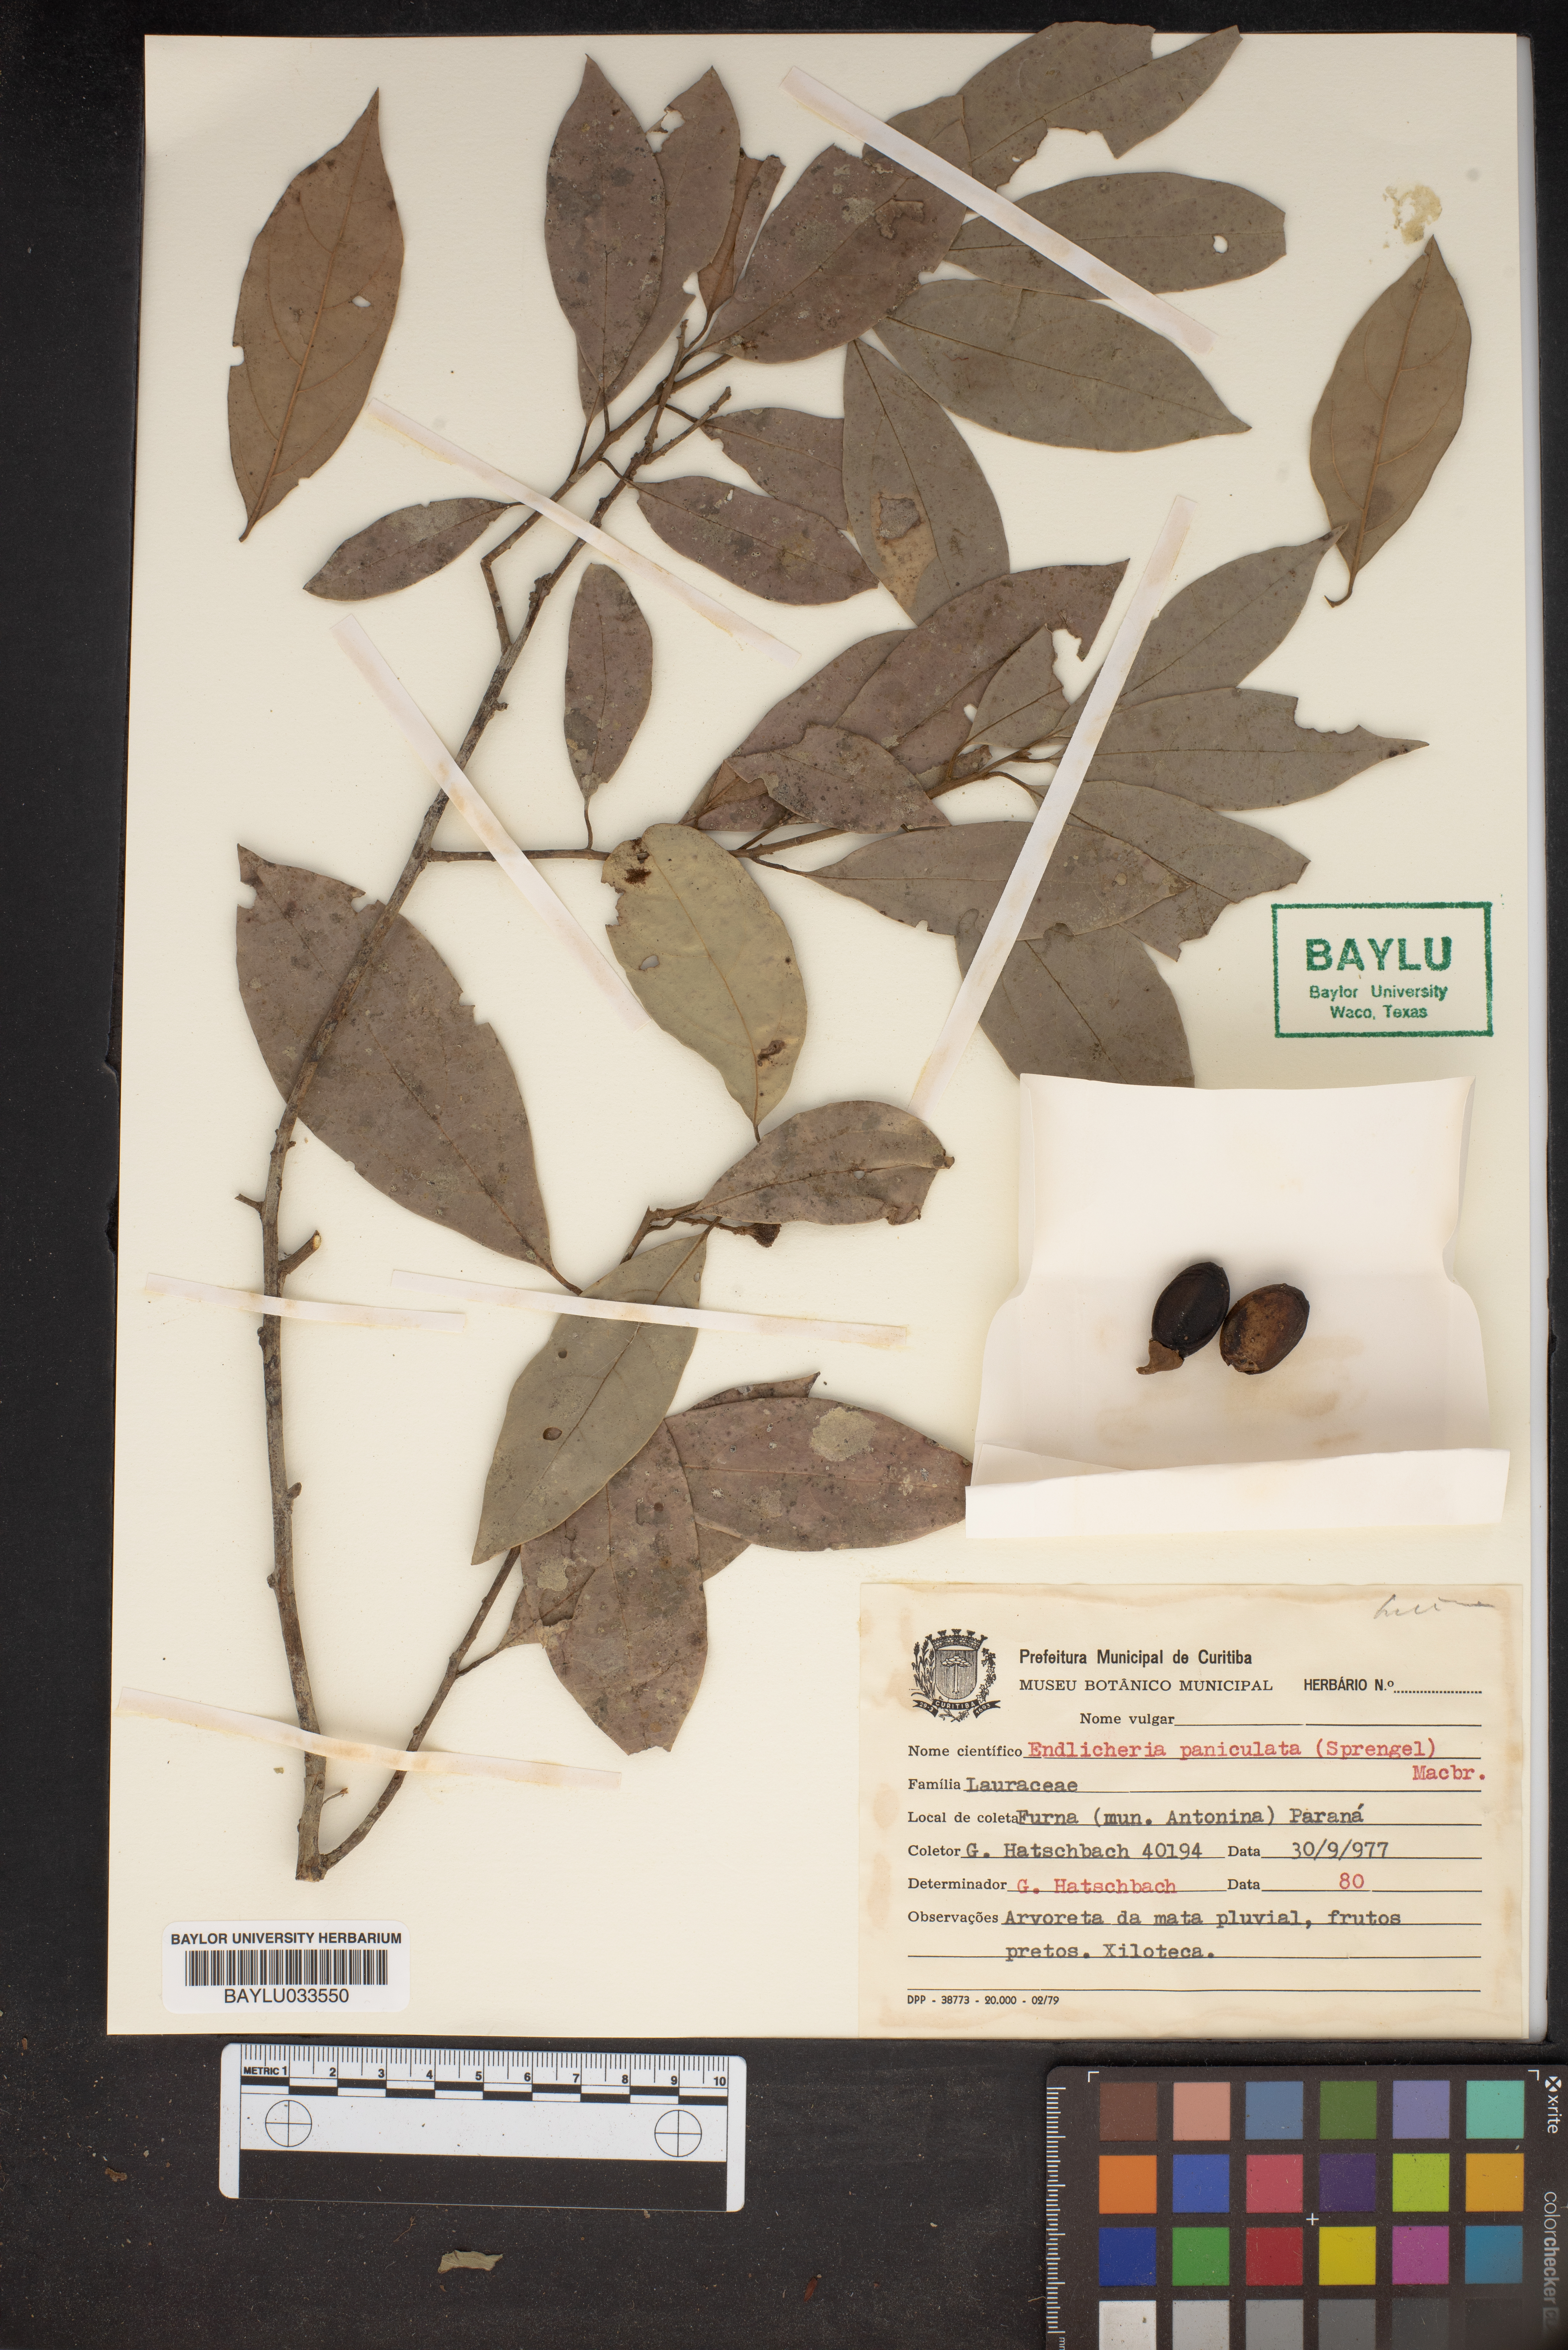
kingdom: Plantae
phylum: Tracheophyta
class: Magnoliopsida
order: Laurales
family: Lauraceae
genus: Endlicheria
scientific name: Endlicheria paniculata
